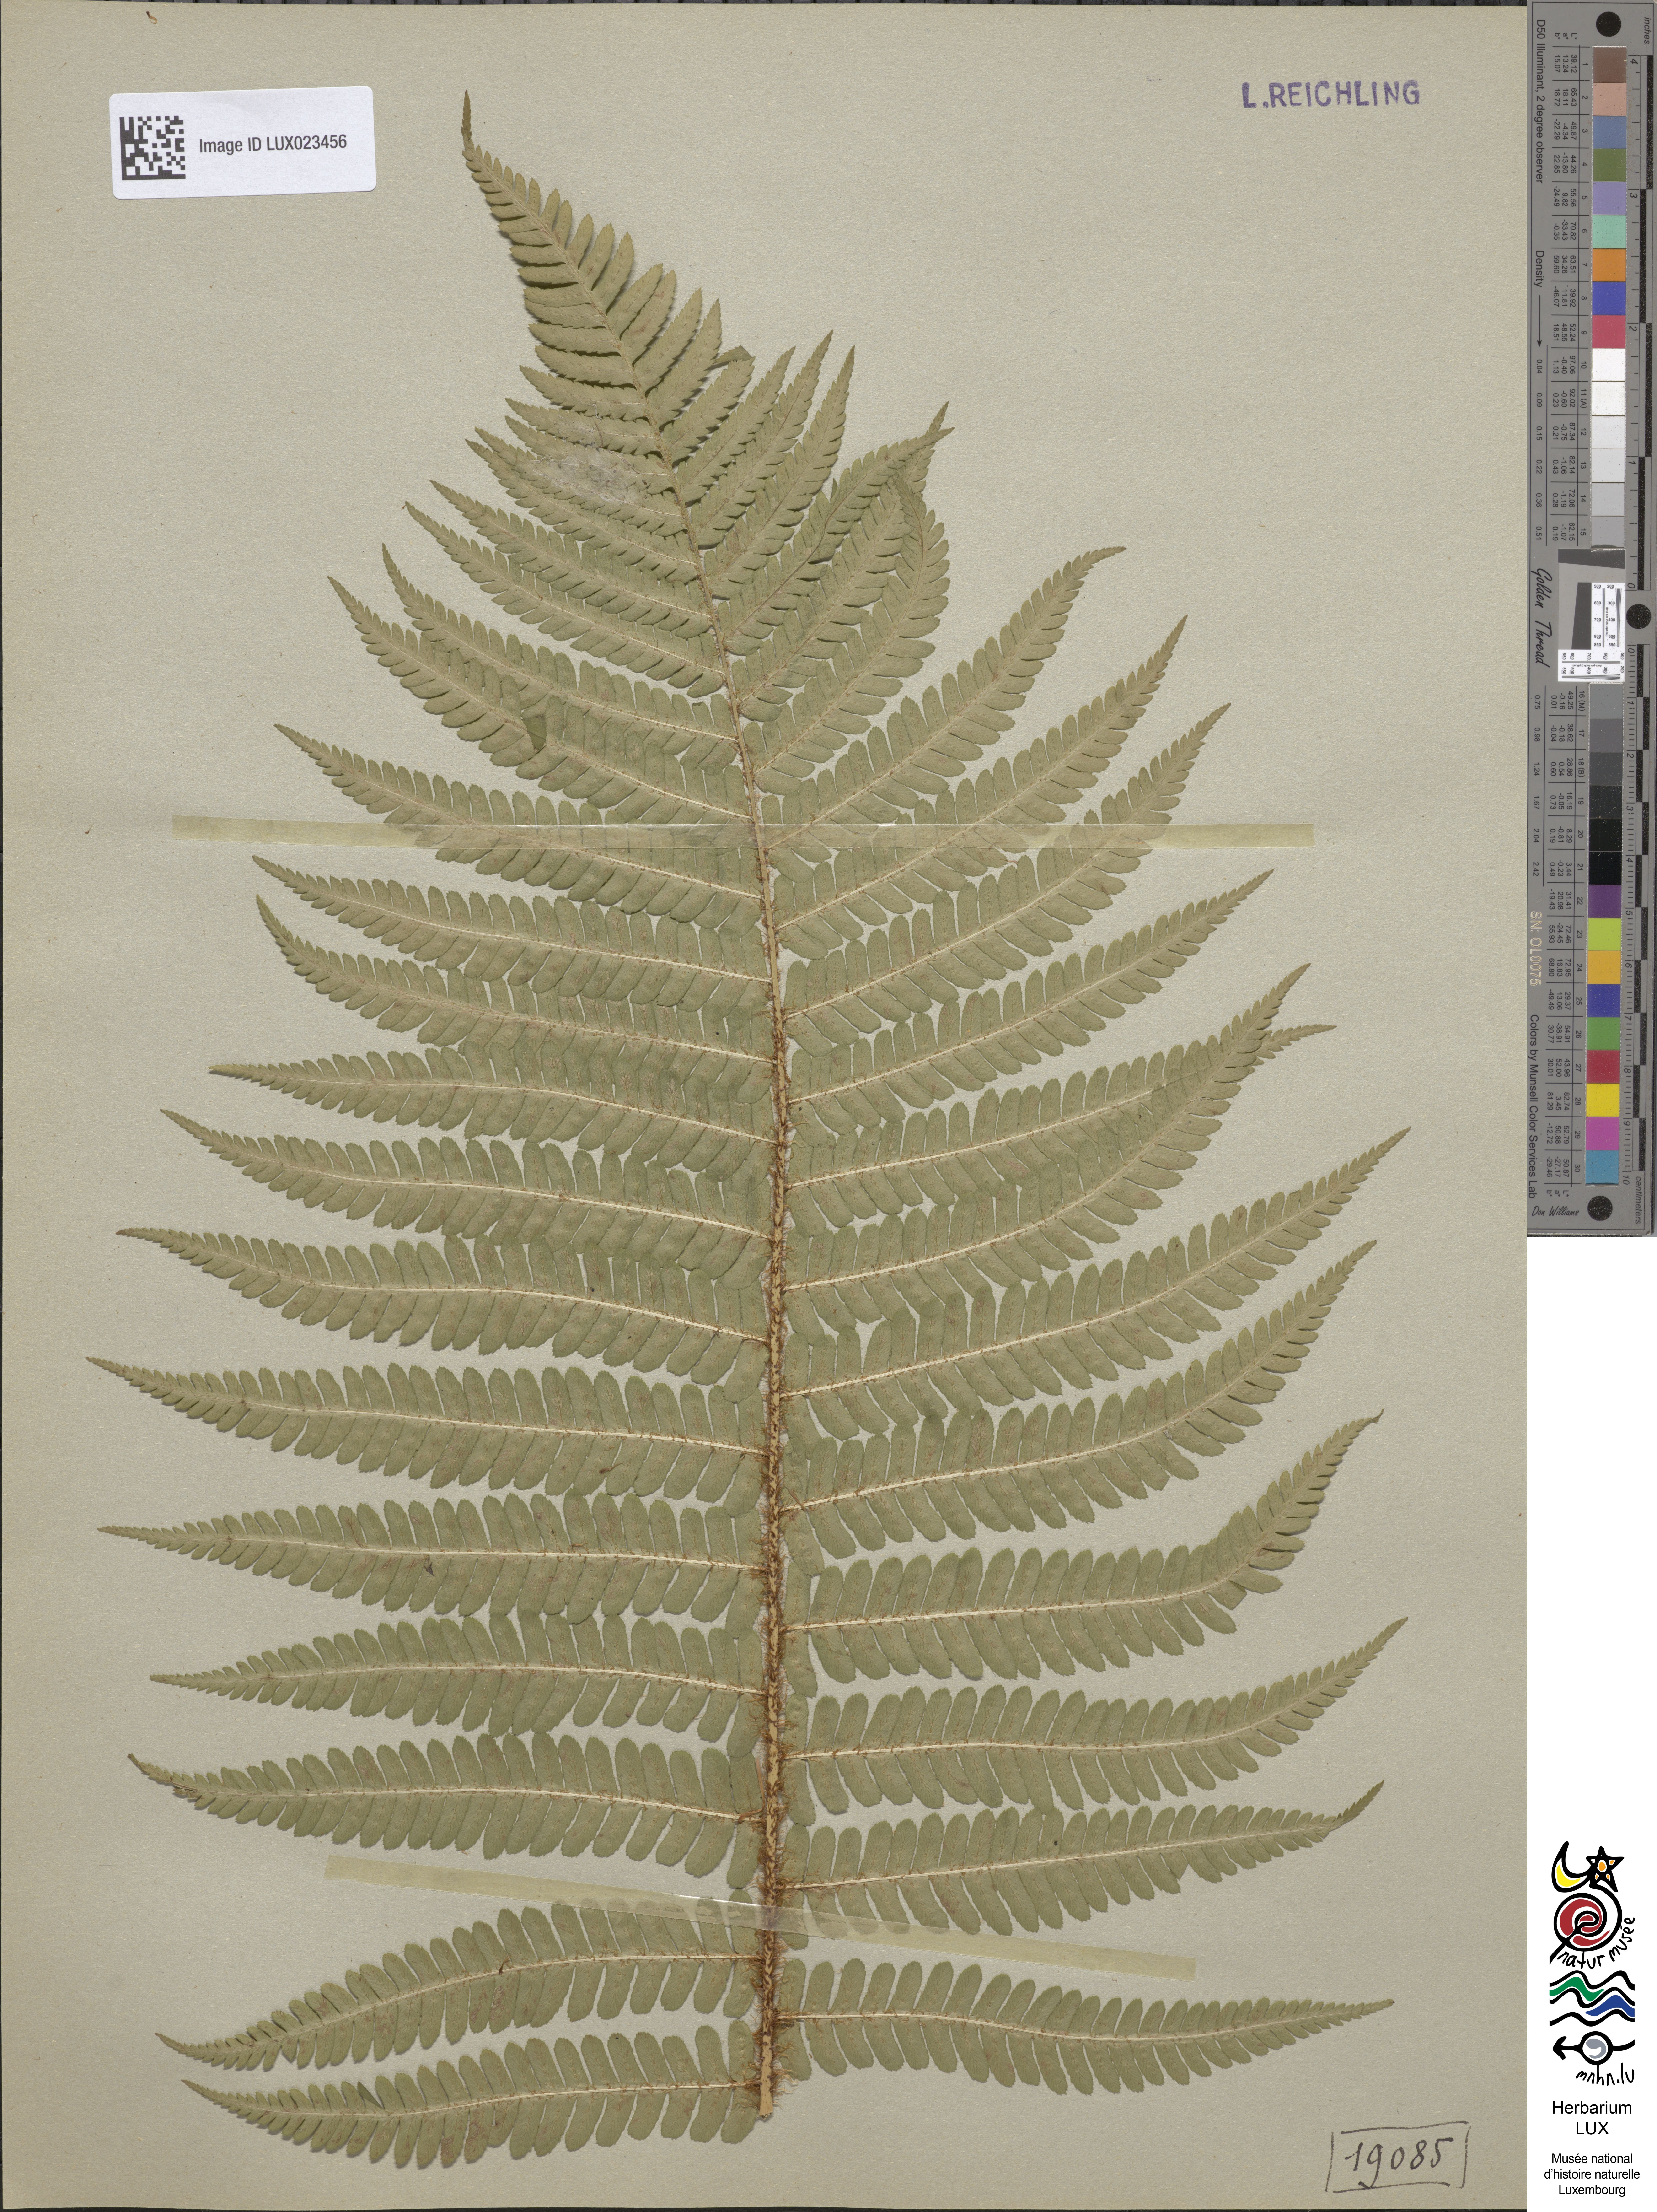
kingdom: Plantae
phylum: Tracheophyta
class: Polypodiopsida
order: Polypodiales
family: Dryopteridaceae
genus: Dryopteris
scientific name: Dryopteris borreri
